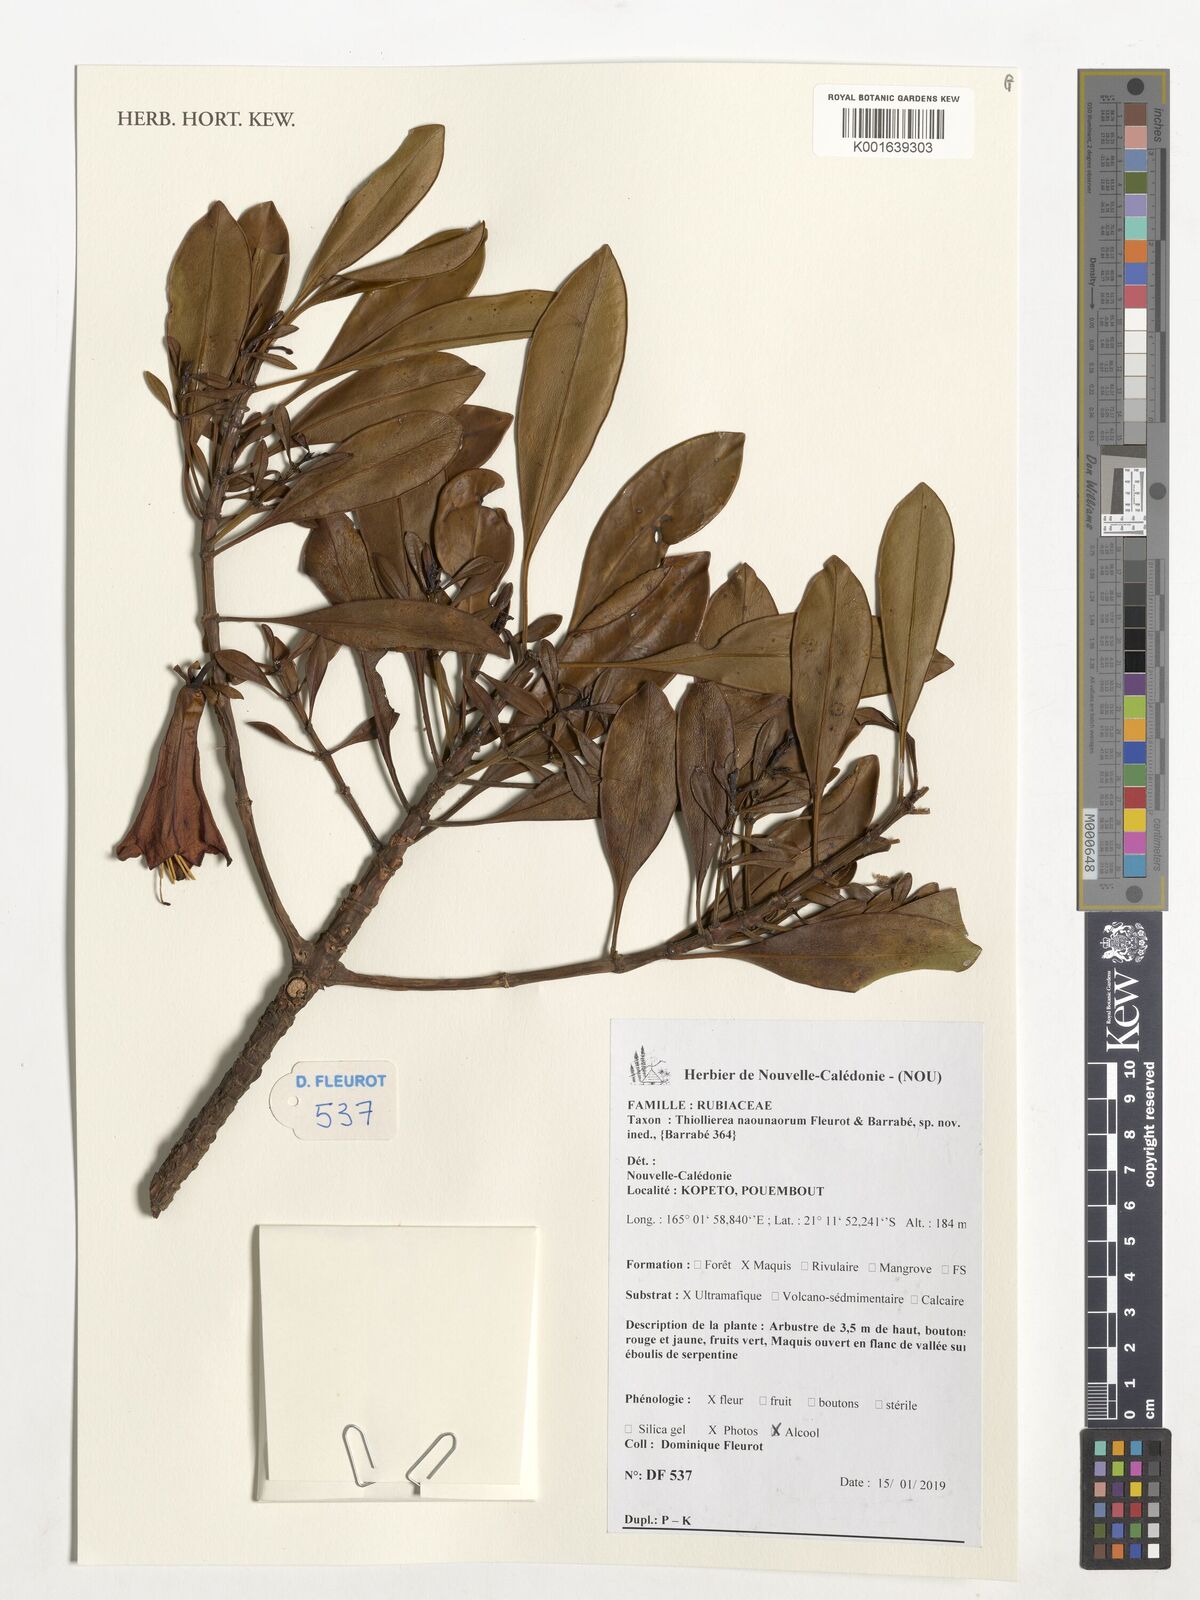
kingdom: Plantae
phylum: Tracheophyta
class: Magnoliopsida
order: Gentianales
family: Rubiaceae
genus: Thiollierea
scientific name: Thiollierea
